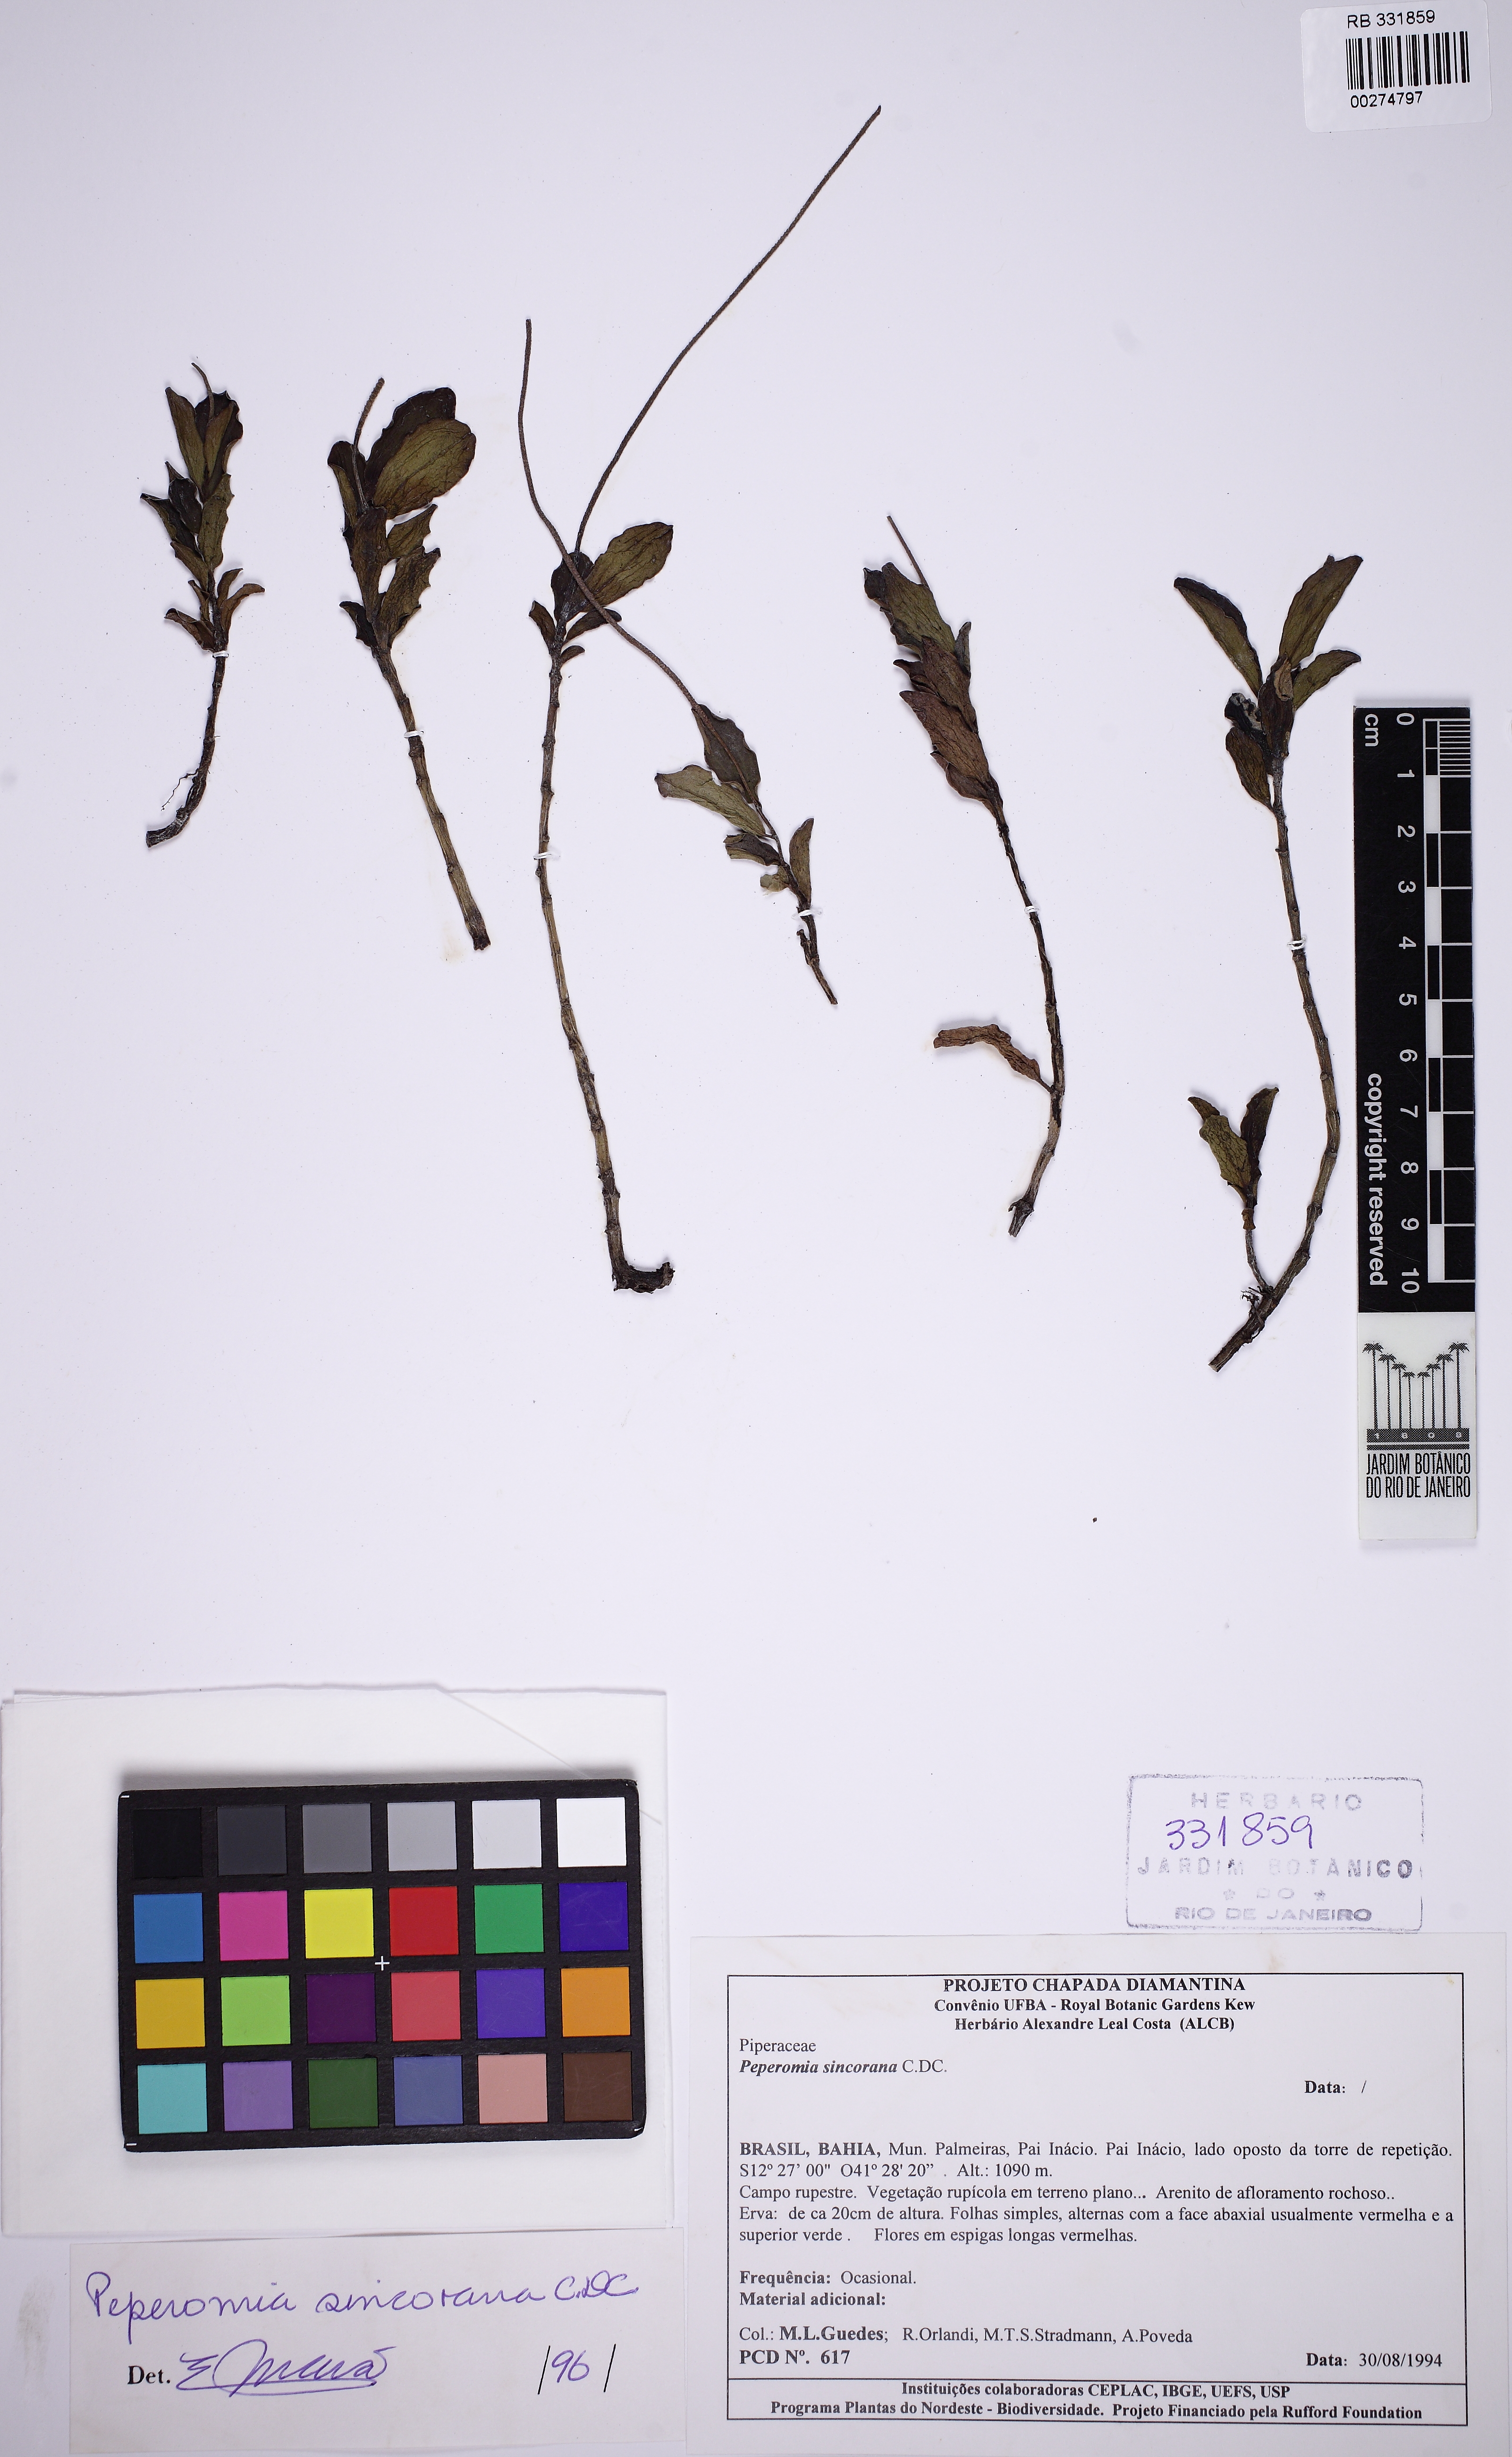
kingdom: Plantae
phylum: Tracheophyta
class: Magnoliopsida
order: Piperales
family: Piperaceae
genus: Peperomia
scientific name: Peperomia sincorana
